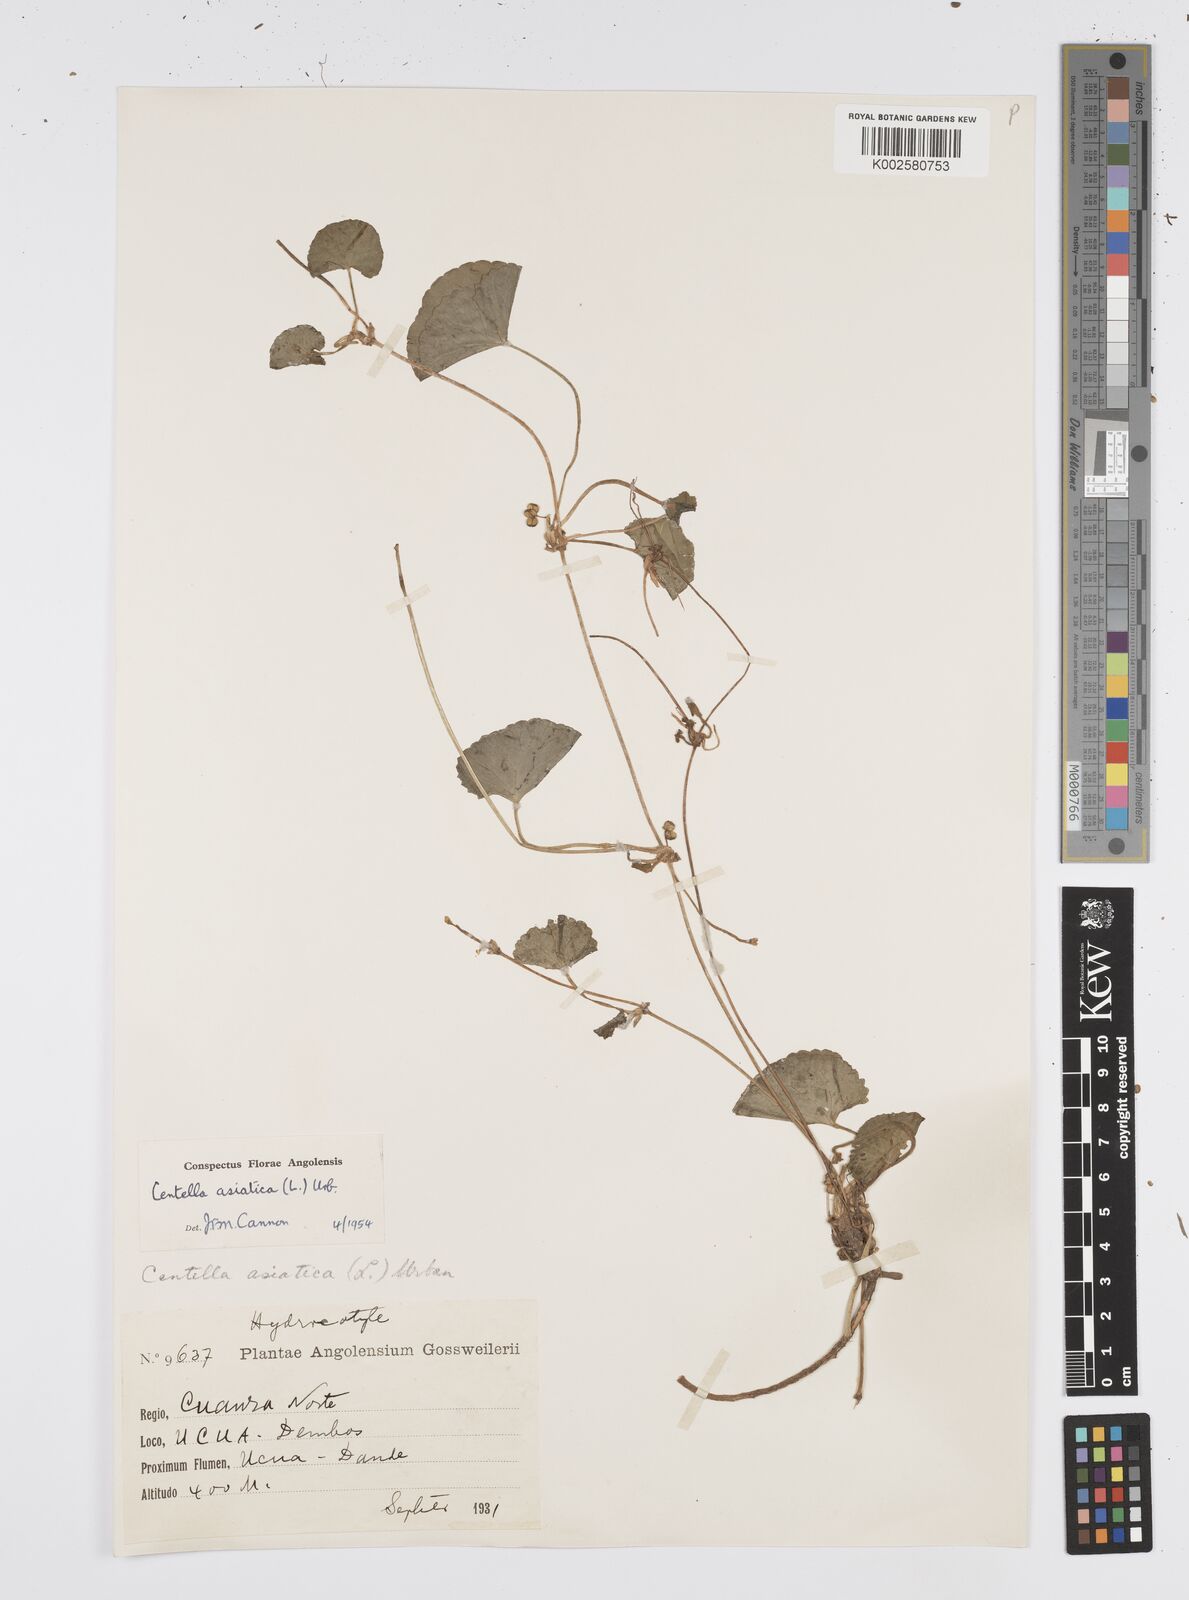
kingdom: Plantae
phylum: Tracheophyta
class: Magnoliopsida
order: Apiales
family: Apiaceae
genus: Centella
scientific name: Centella asiatica
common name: Spadeleaf
